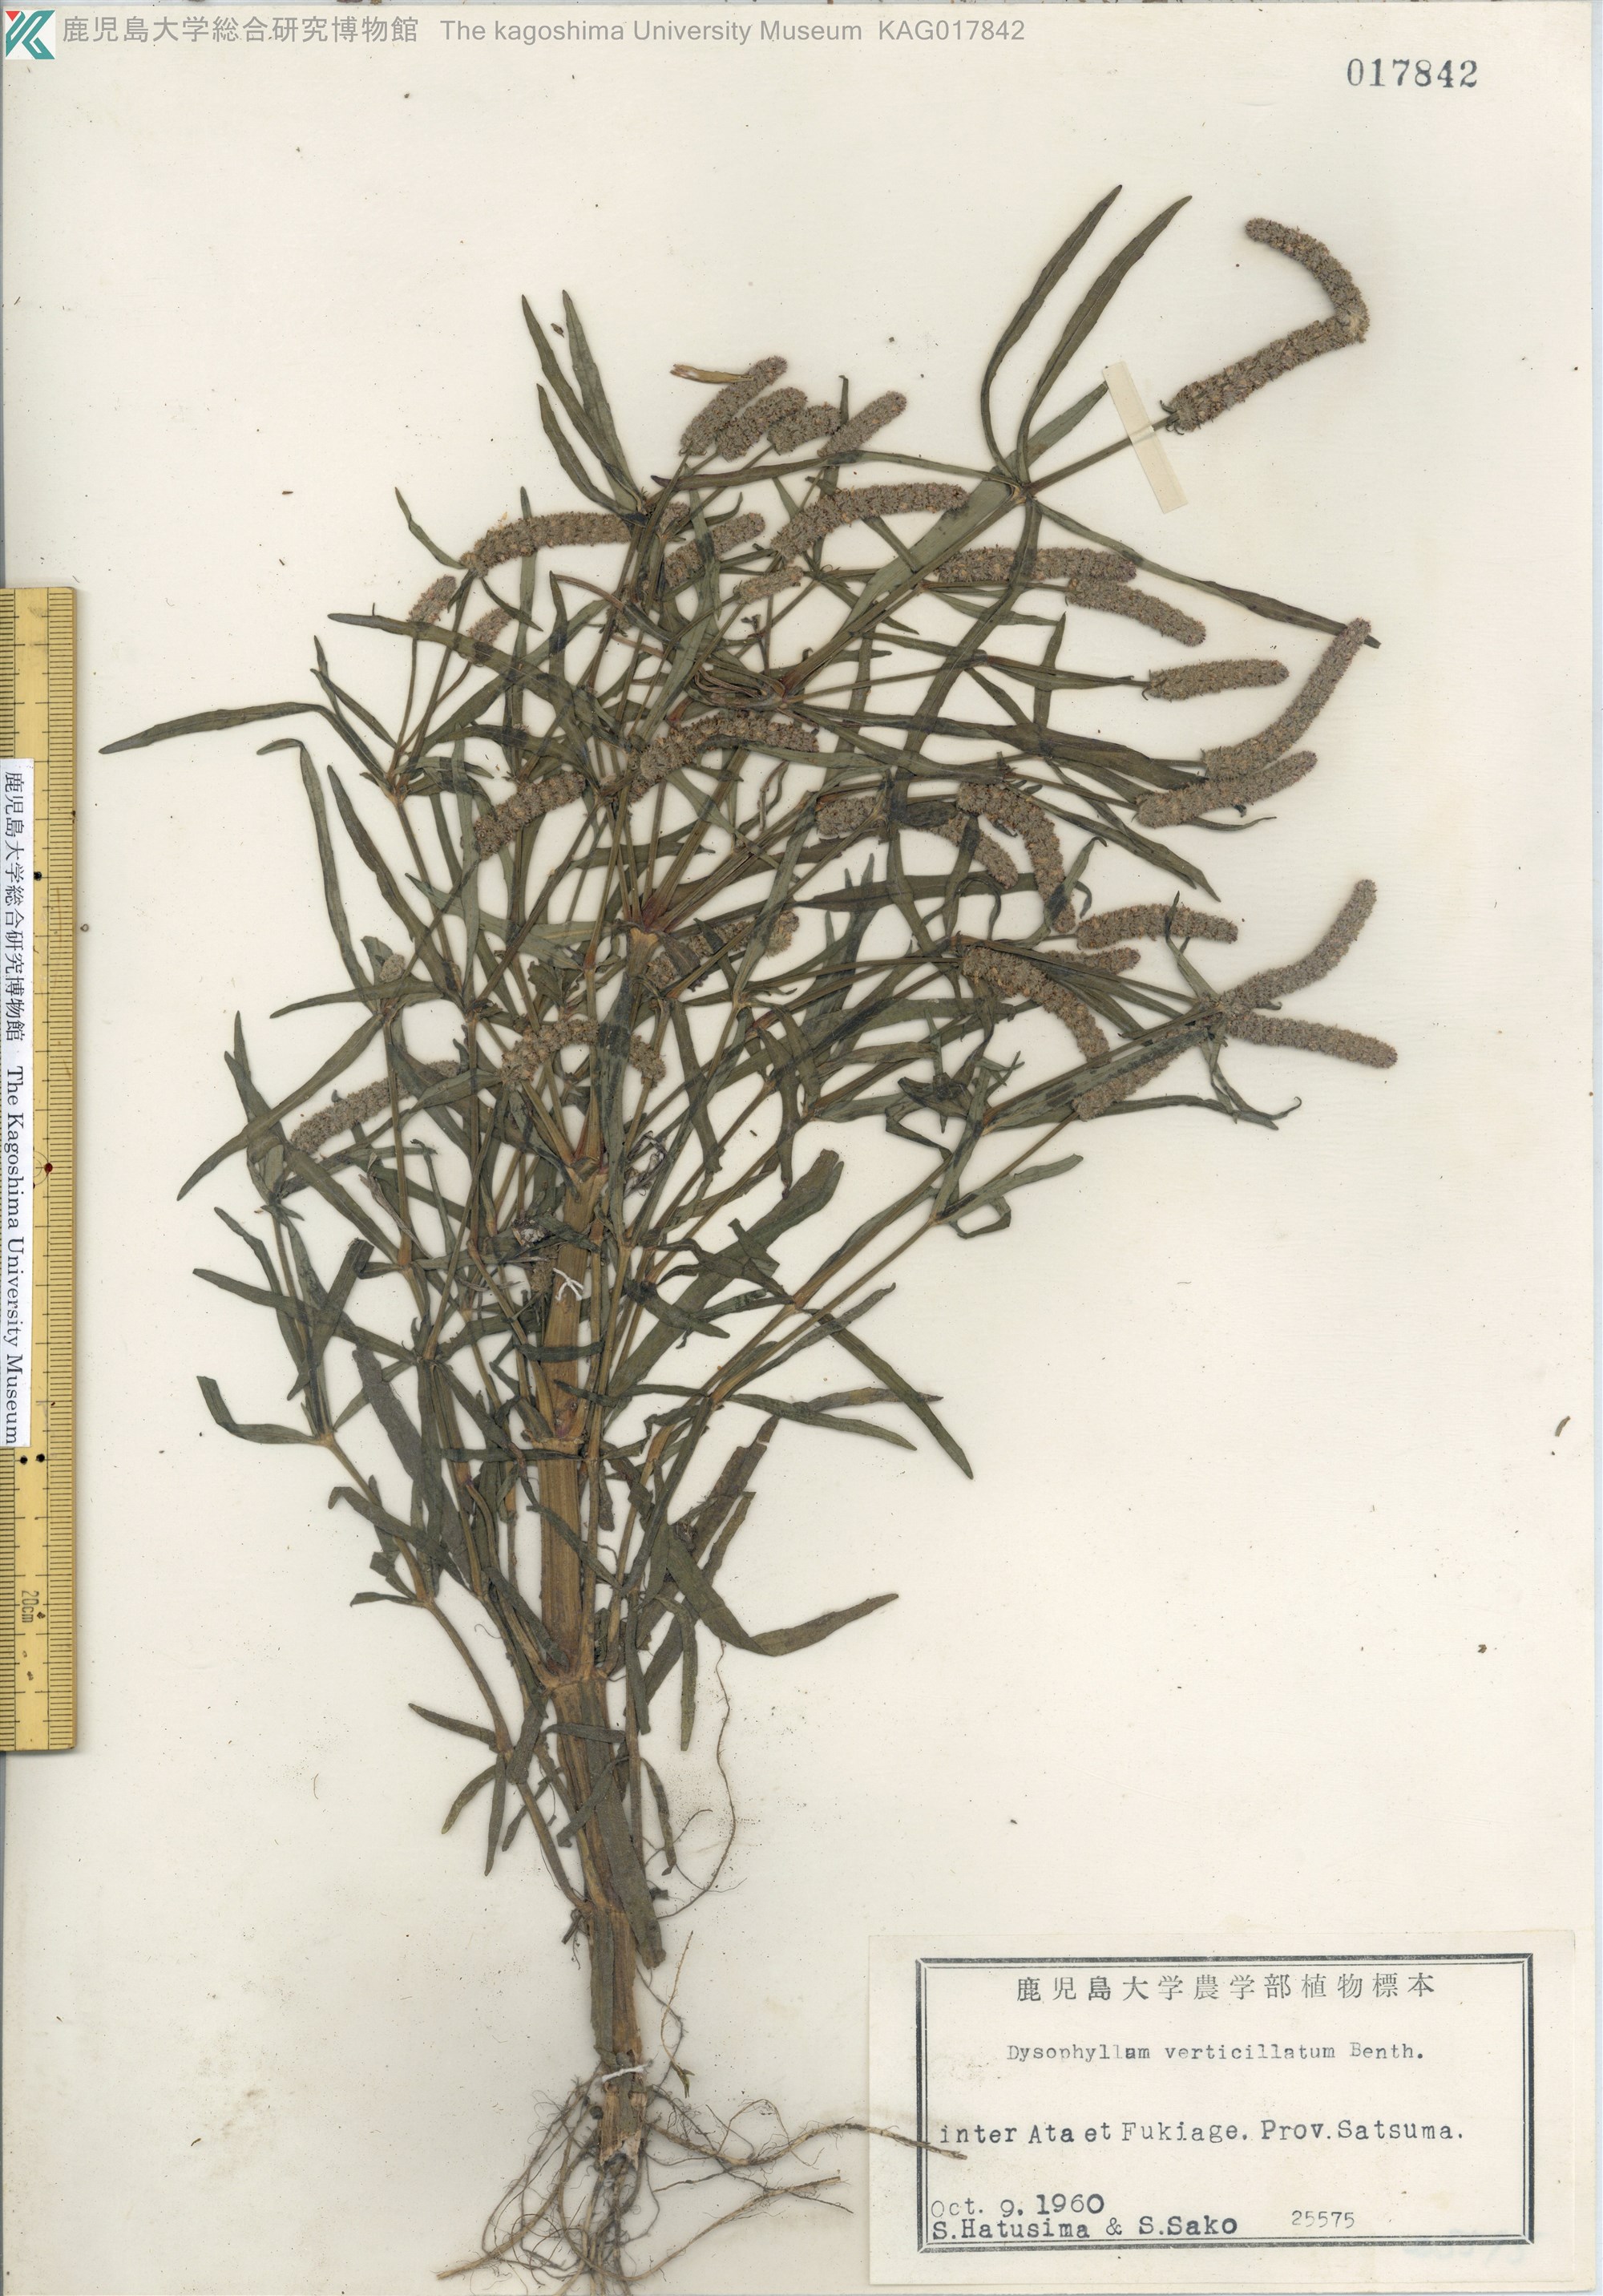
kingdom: Plantae
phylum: Tracheophyta
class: Magnoliopsida
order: Lamiales
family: Lamiaceae
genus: Pogostemon
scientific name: Pogostemon stellatus
